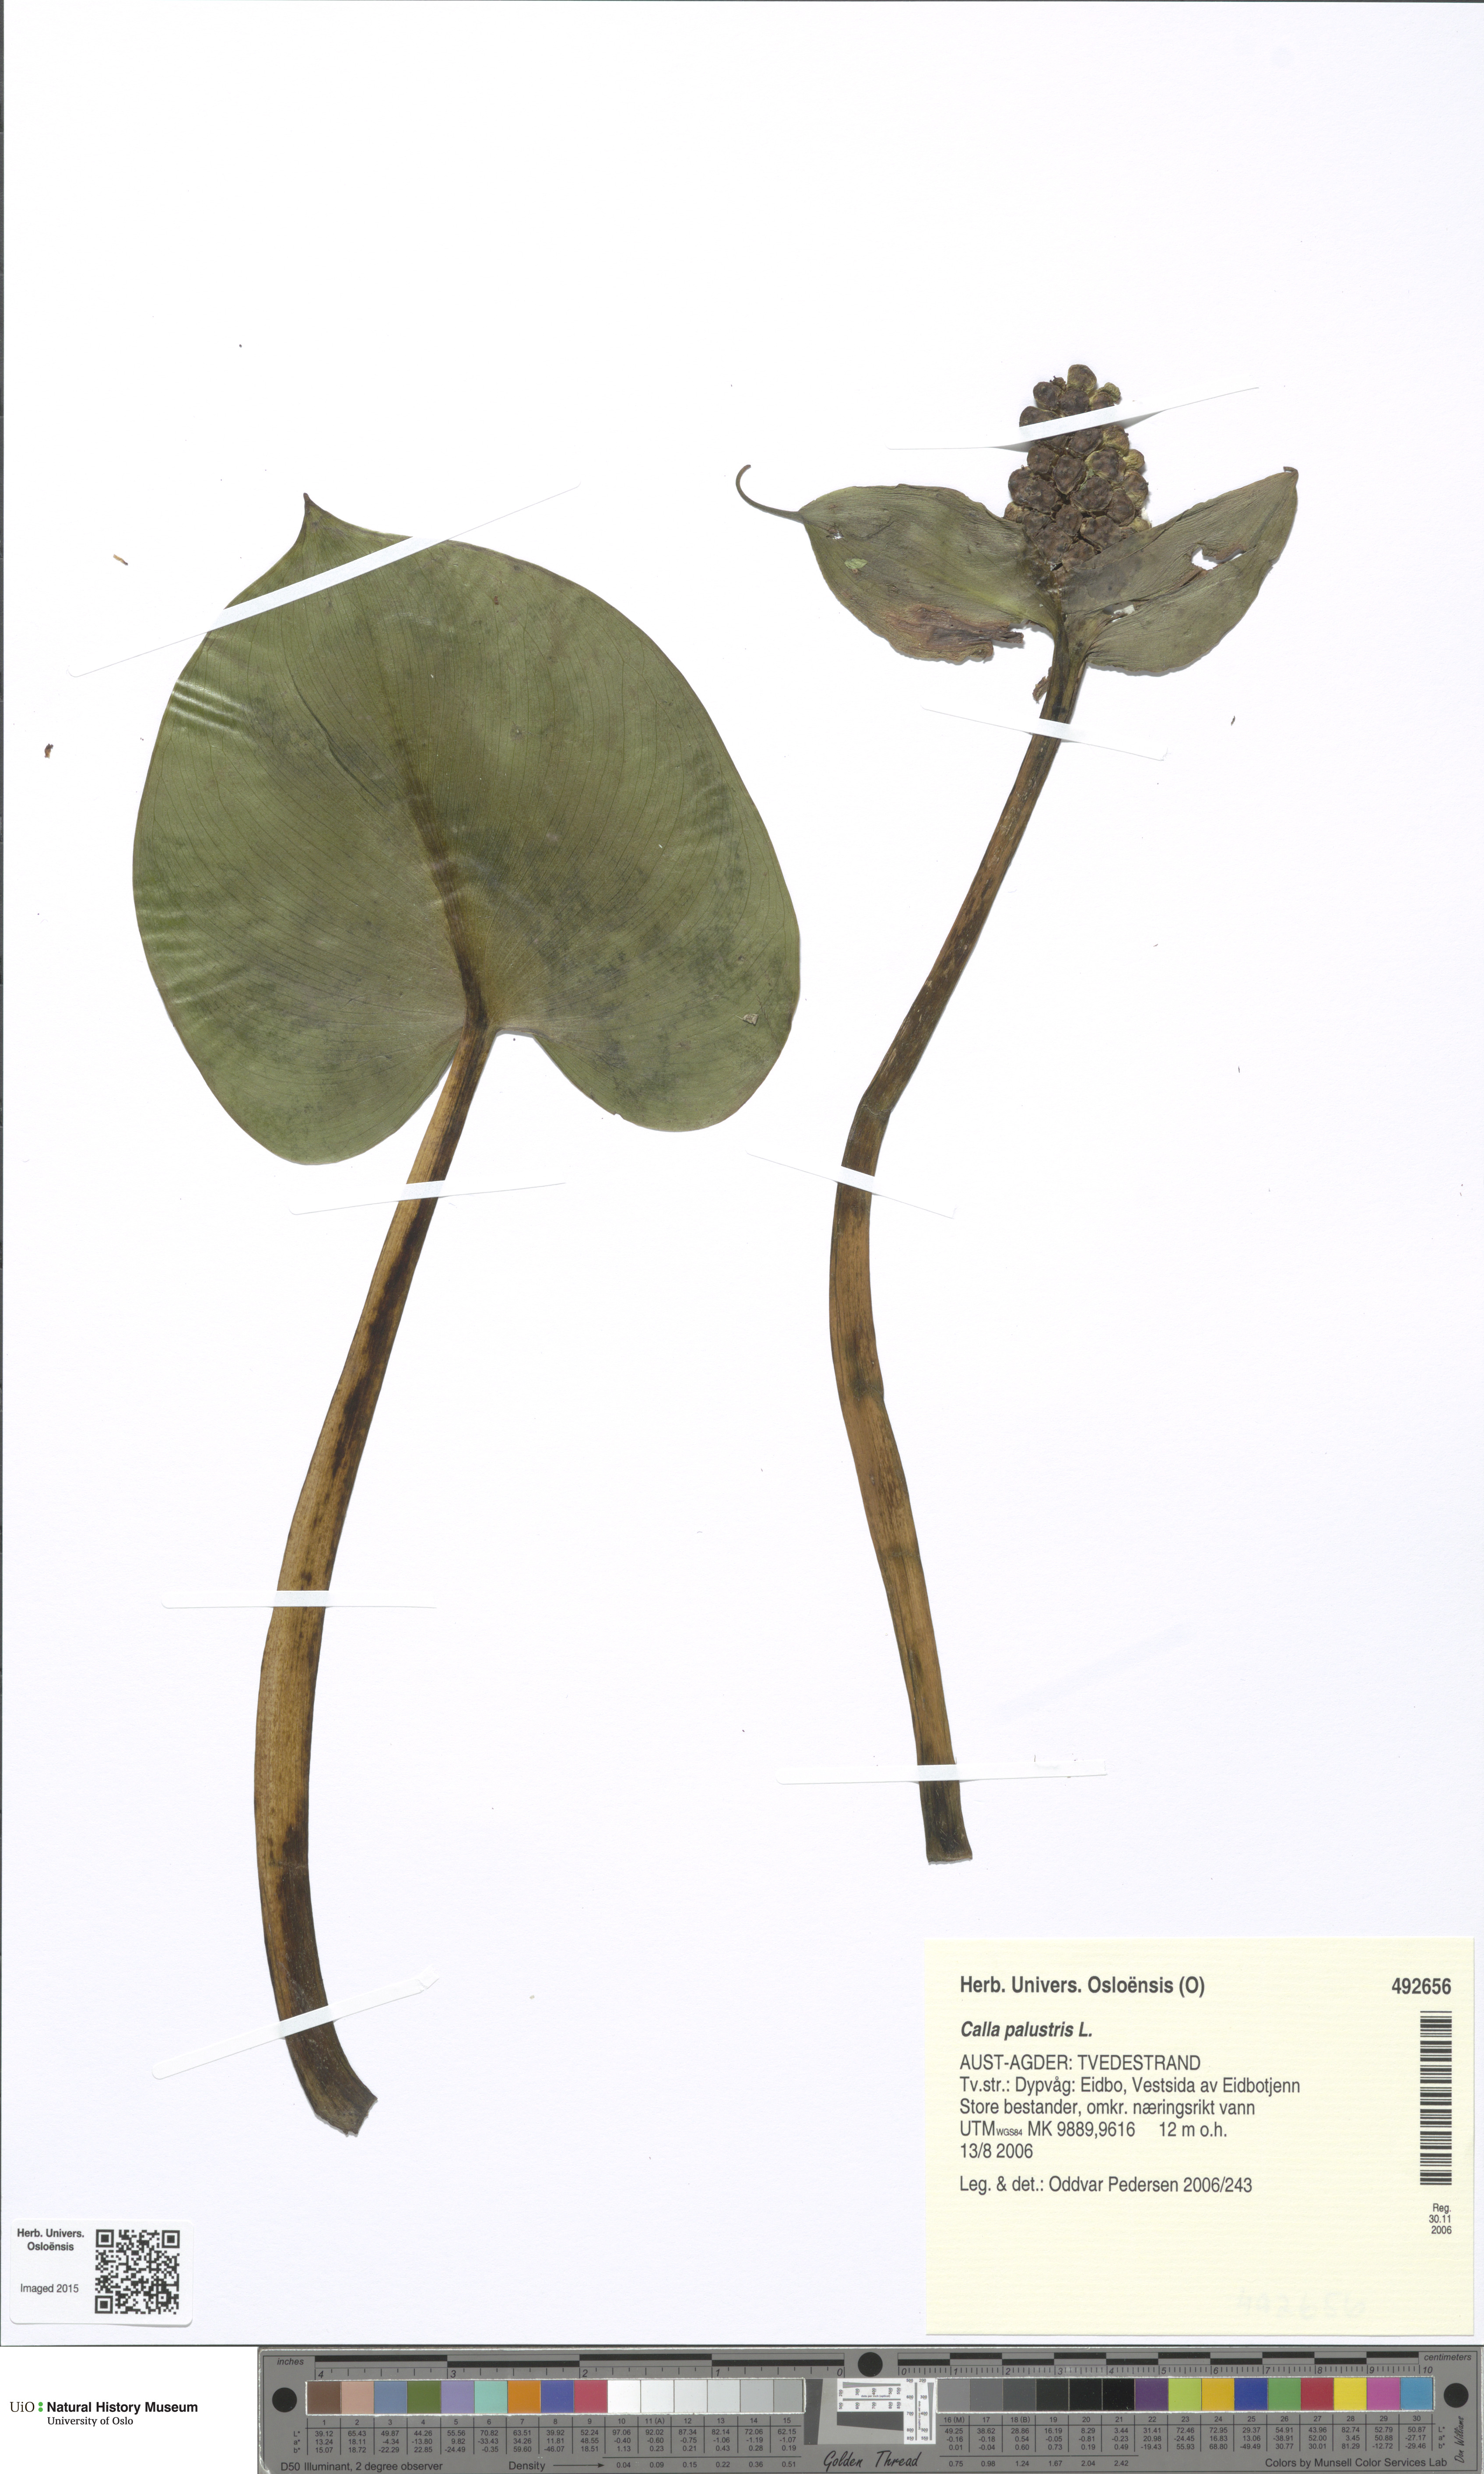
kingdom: Plantae
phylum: Tracheophyta
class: Liliopsida
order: Alismatales
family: Araceae
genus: Calla
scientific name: Calla palustris
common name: Bog arum
